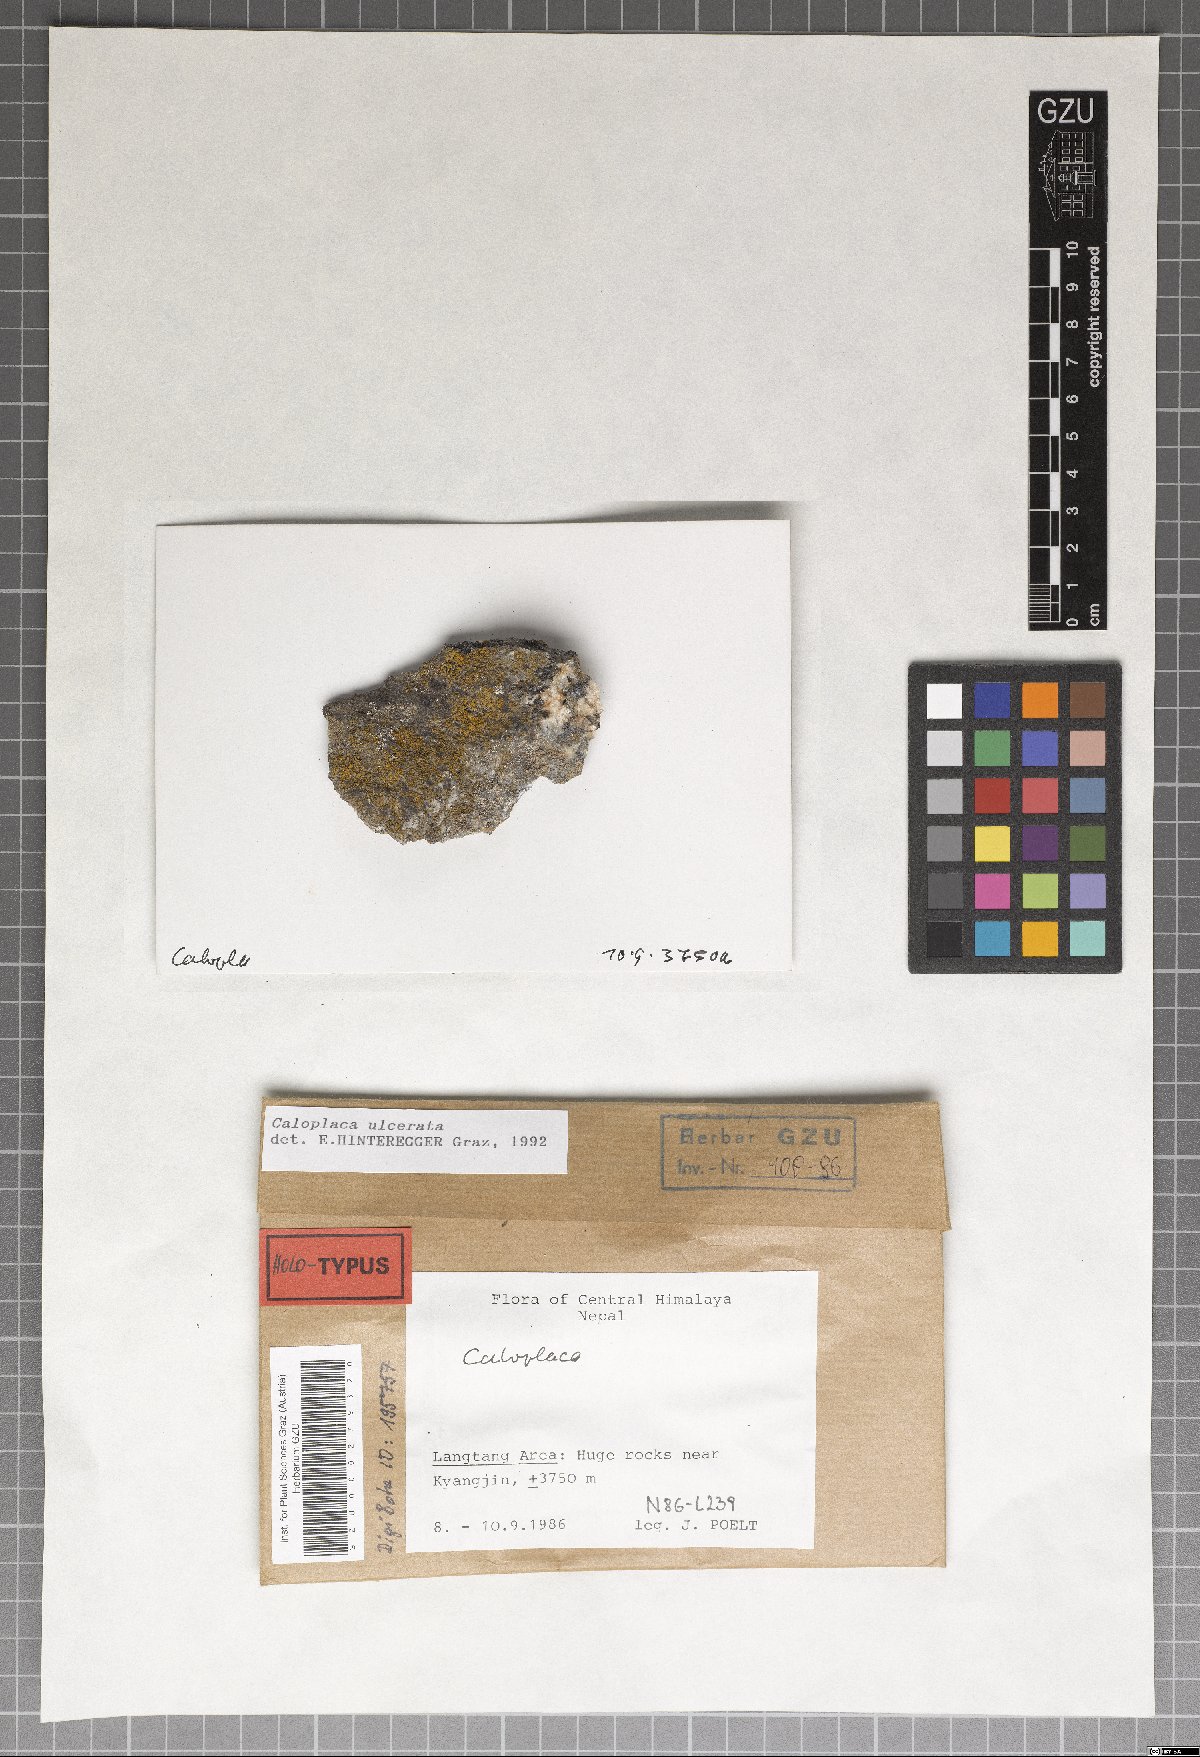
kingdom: Fungi
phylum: Ascomycota
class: Lecanoromycetes
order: Teloschistales
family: Teloschistaceae
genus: Caloplaca
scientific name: Caloplaca ulcerata
